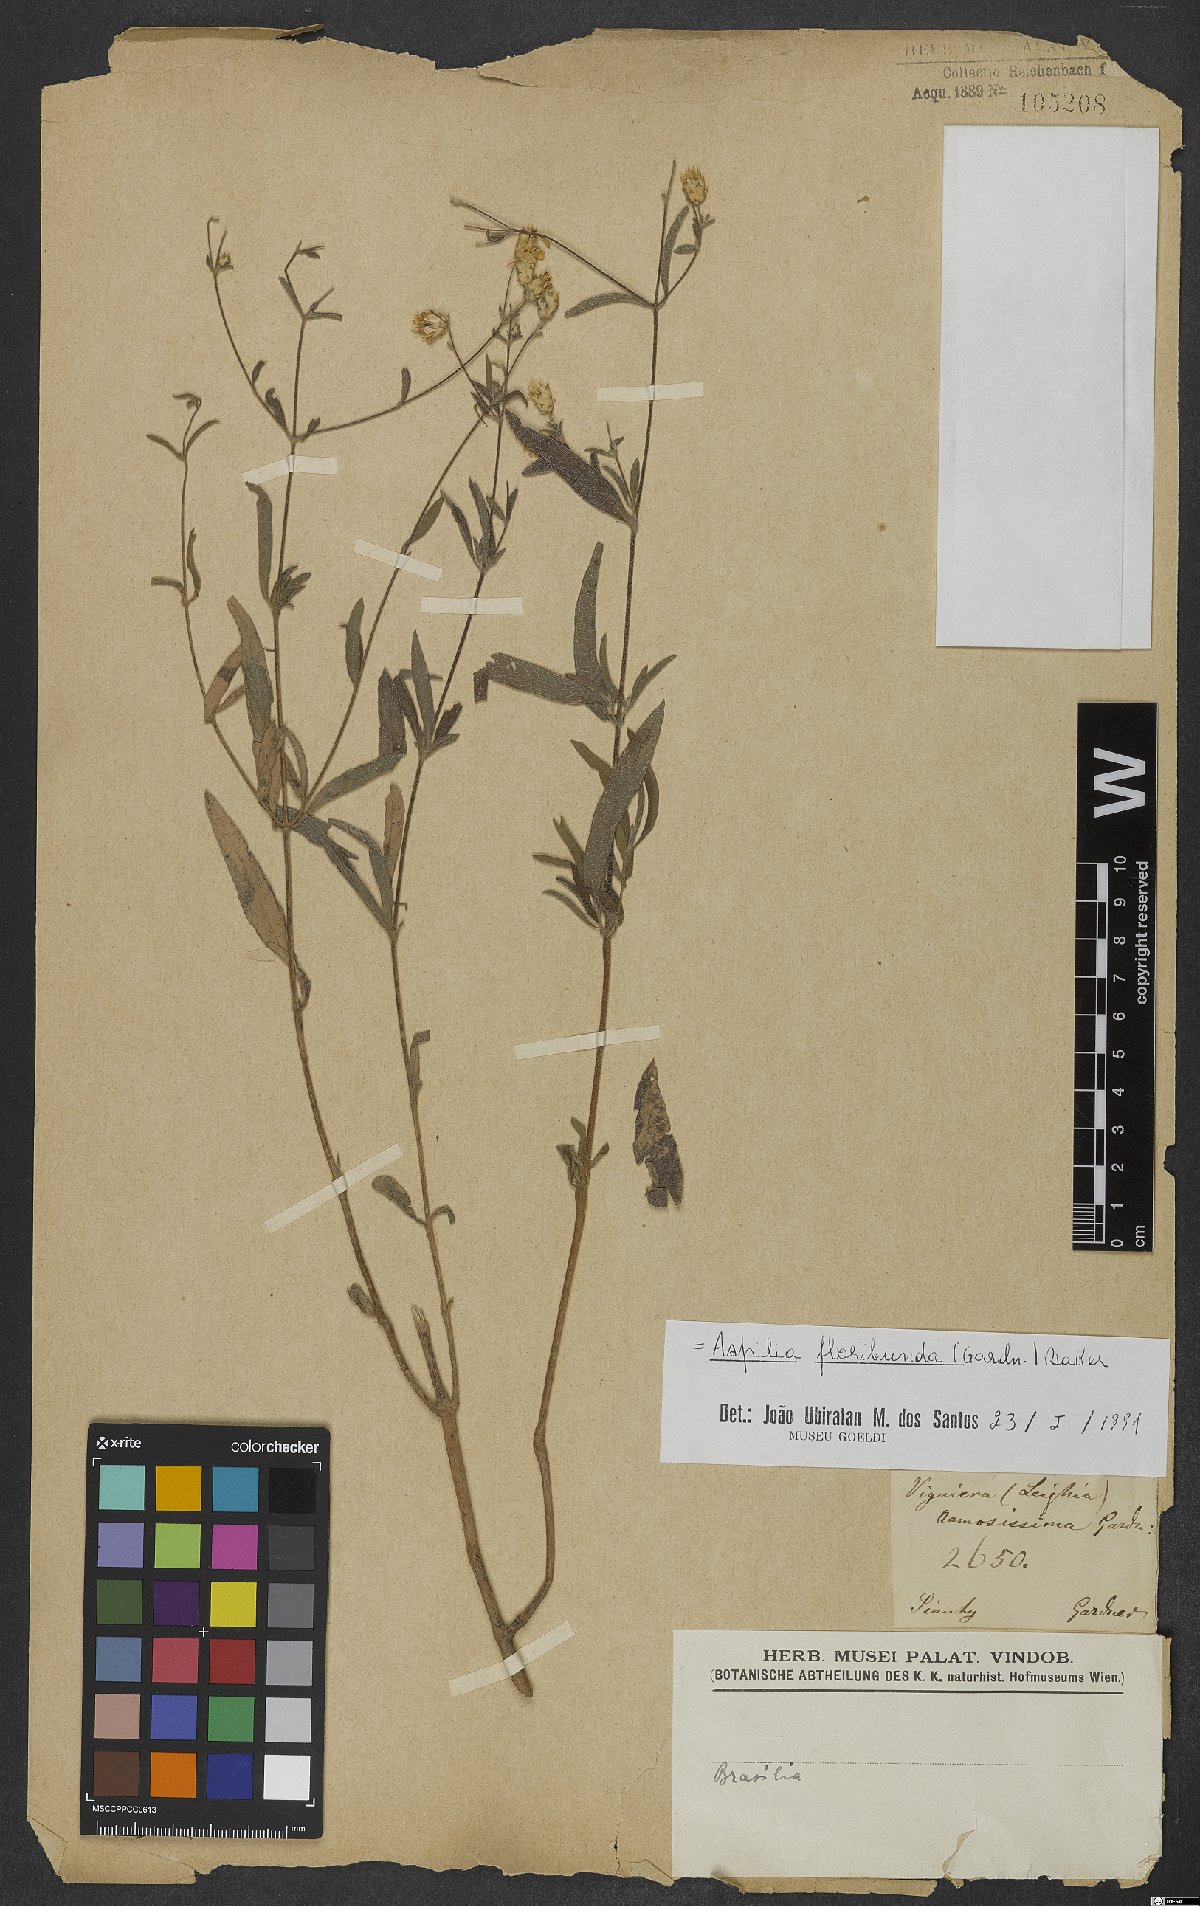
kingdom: Plantae
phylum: Tracheophyta
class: Magnoliopsida
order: Asterales
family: Asteraceae
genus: Wedelia
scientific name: Wedelia floribunda
